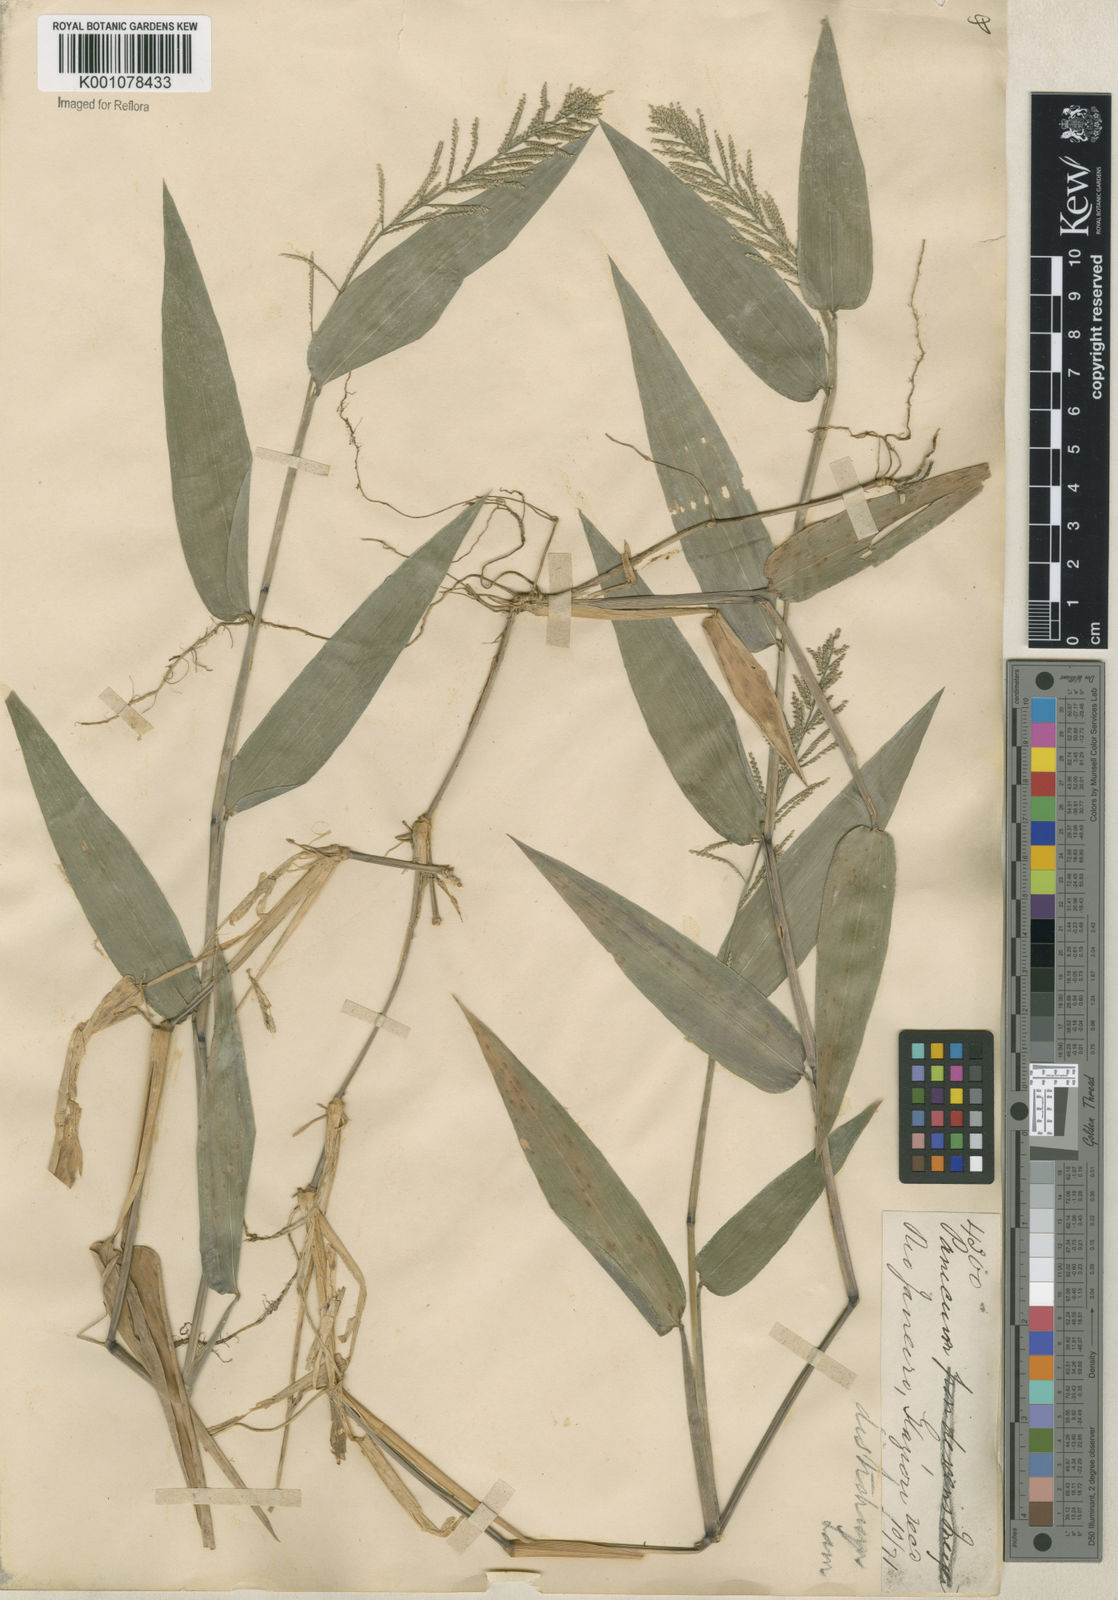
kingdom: Plantae
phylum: Tracheophyta
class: Liliopsida
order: Poales
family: Poaceae
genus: Rugoloa
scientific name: Rugoloa pilosa
